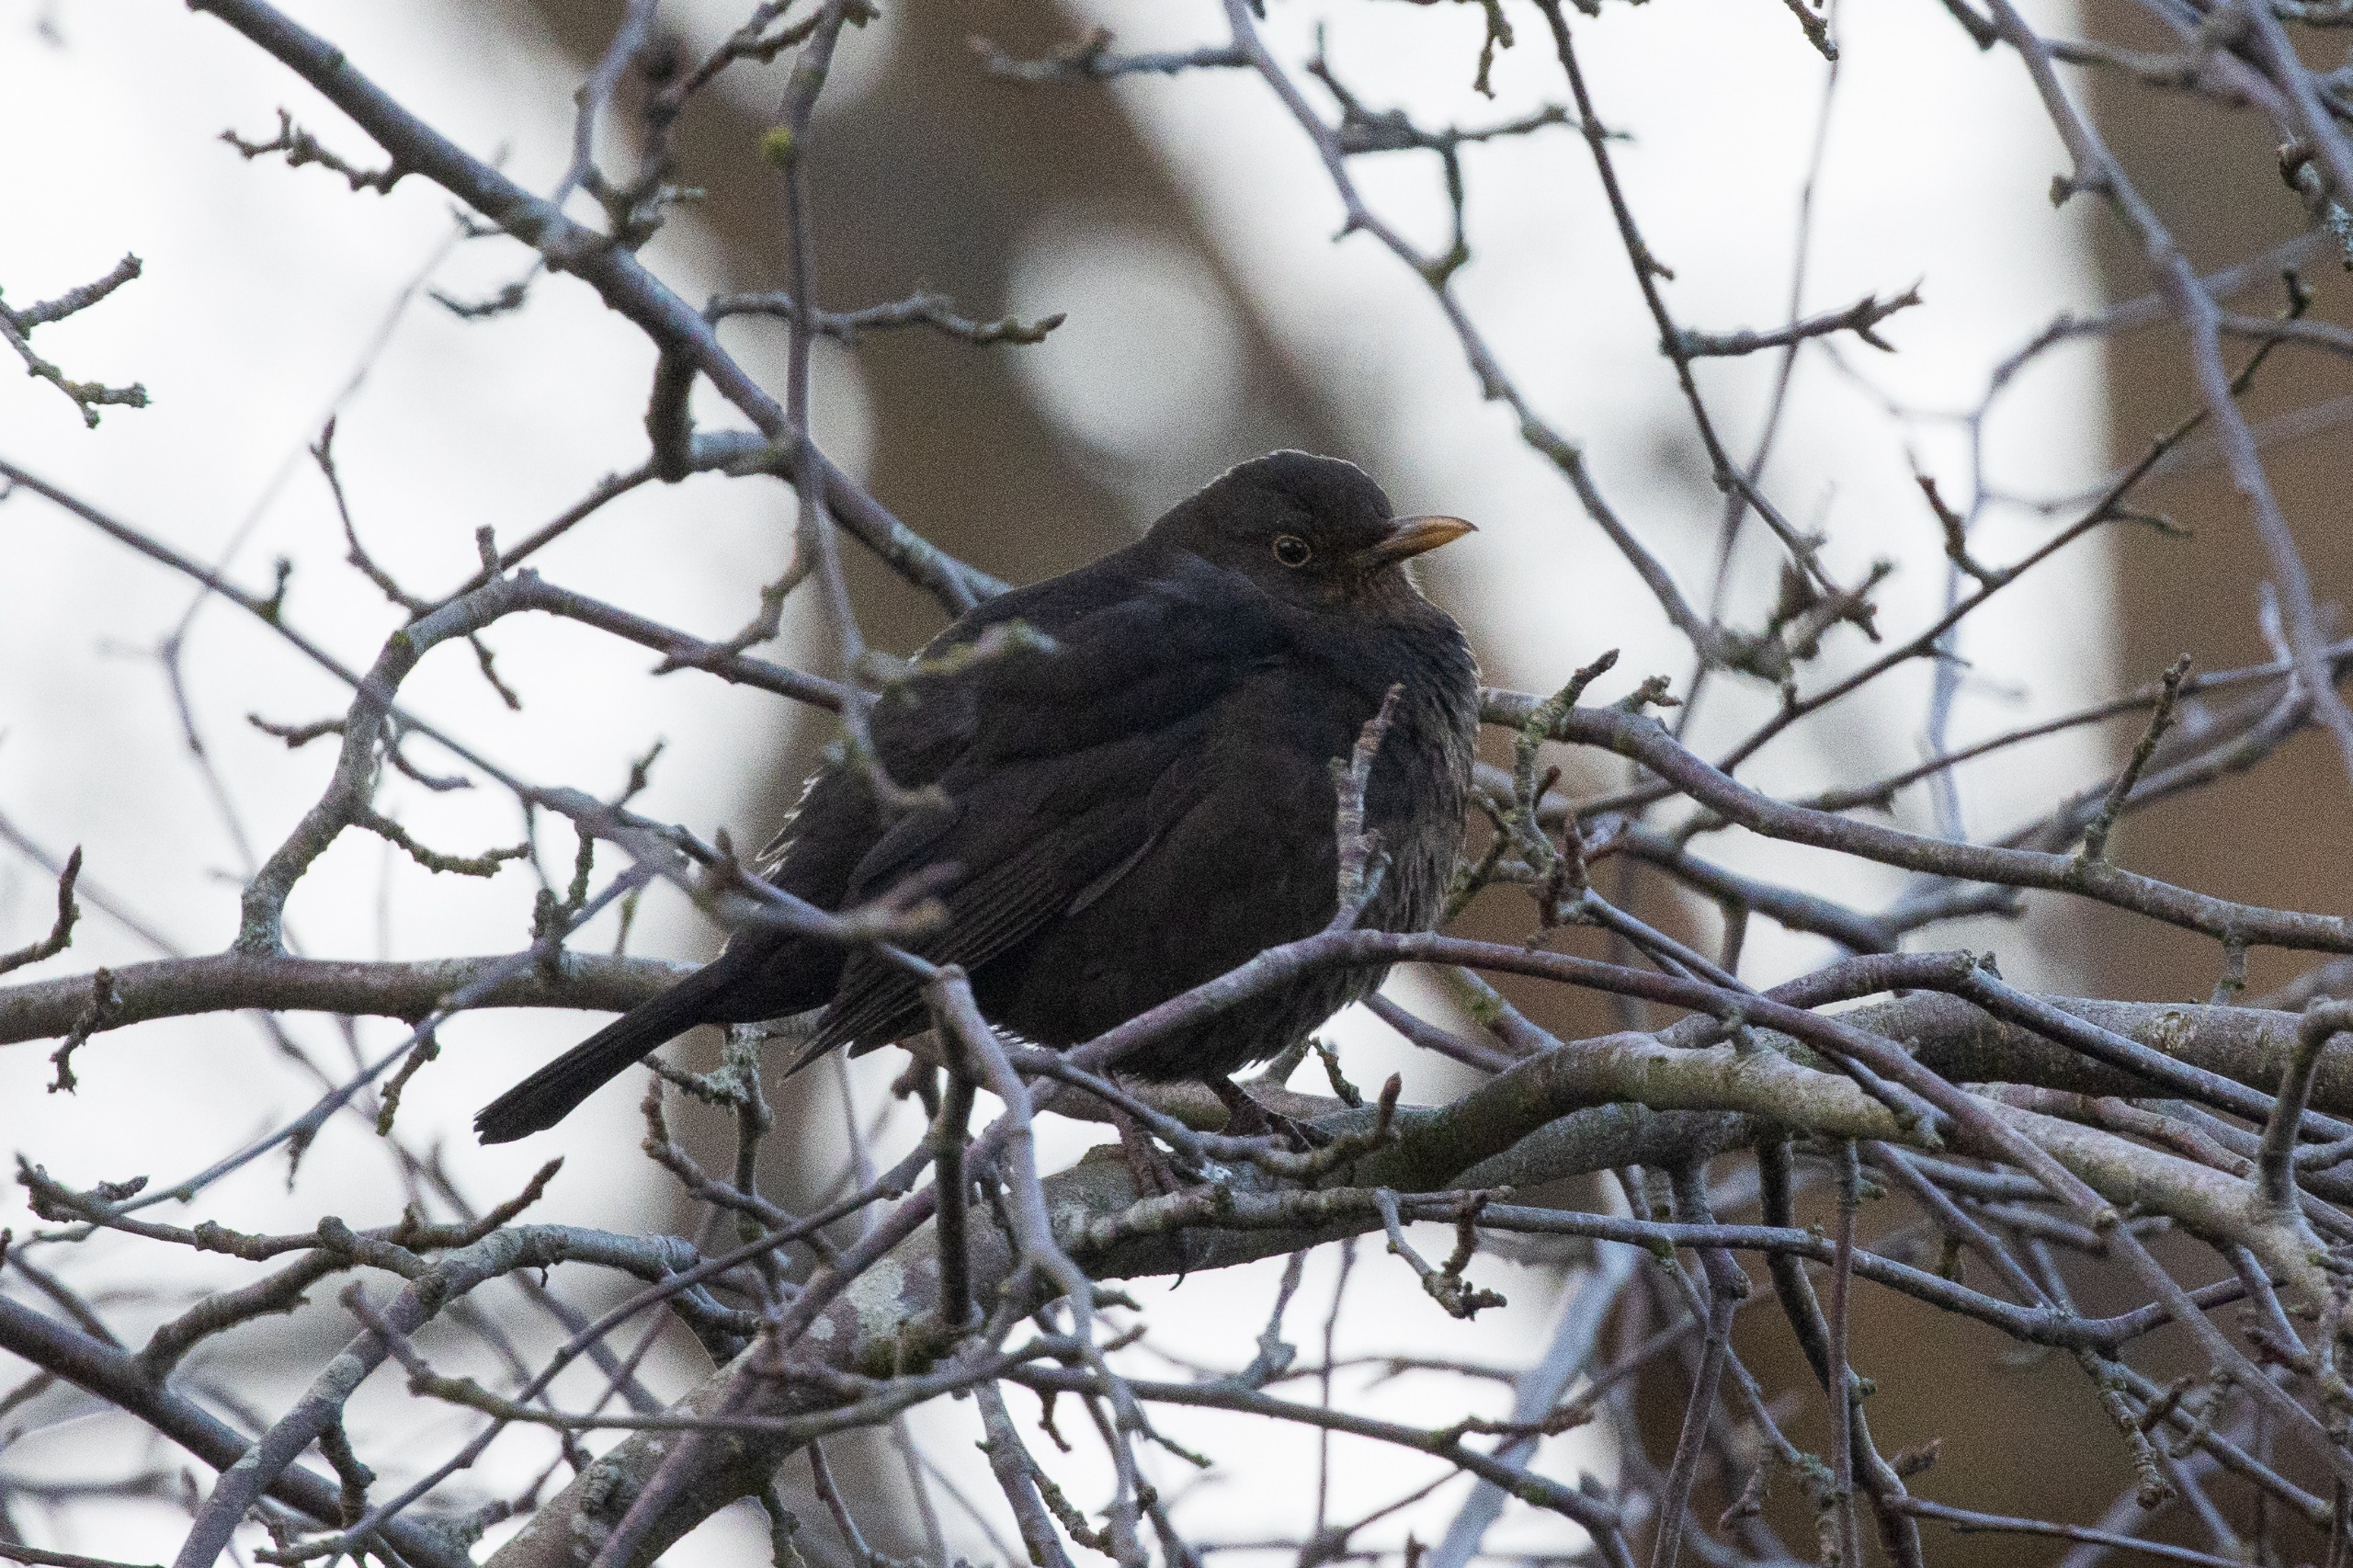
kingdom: Animalia
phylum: Chordata
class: Aves
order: Passeriformes
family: Turdidae
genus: Turdus
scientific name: Turdus merula
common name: Solsort
